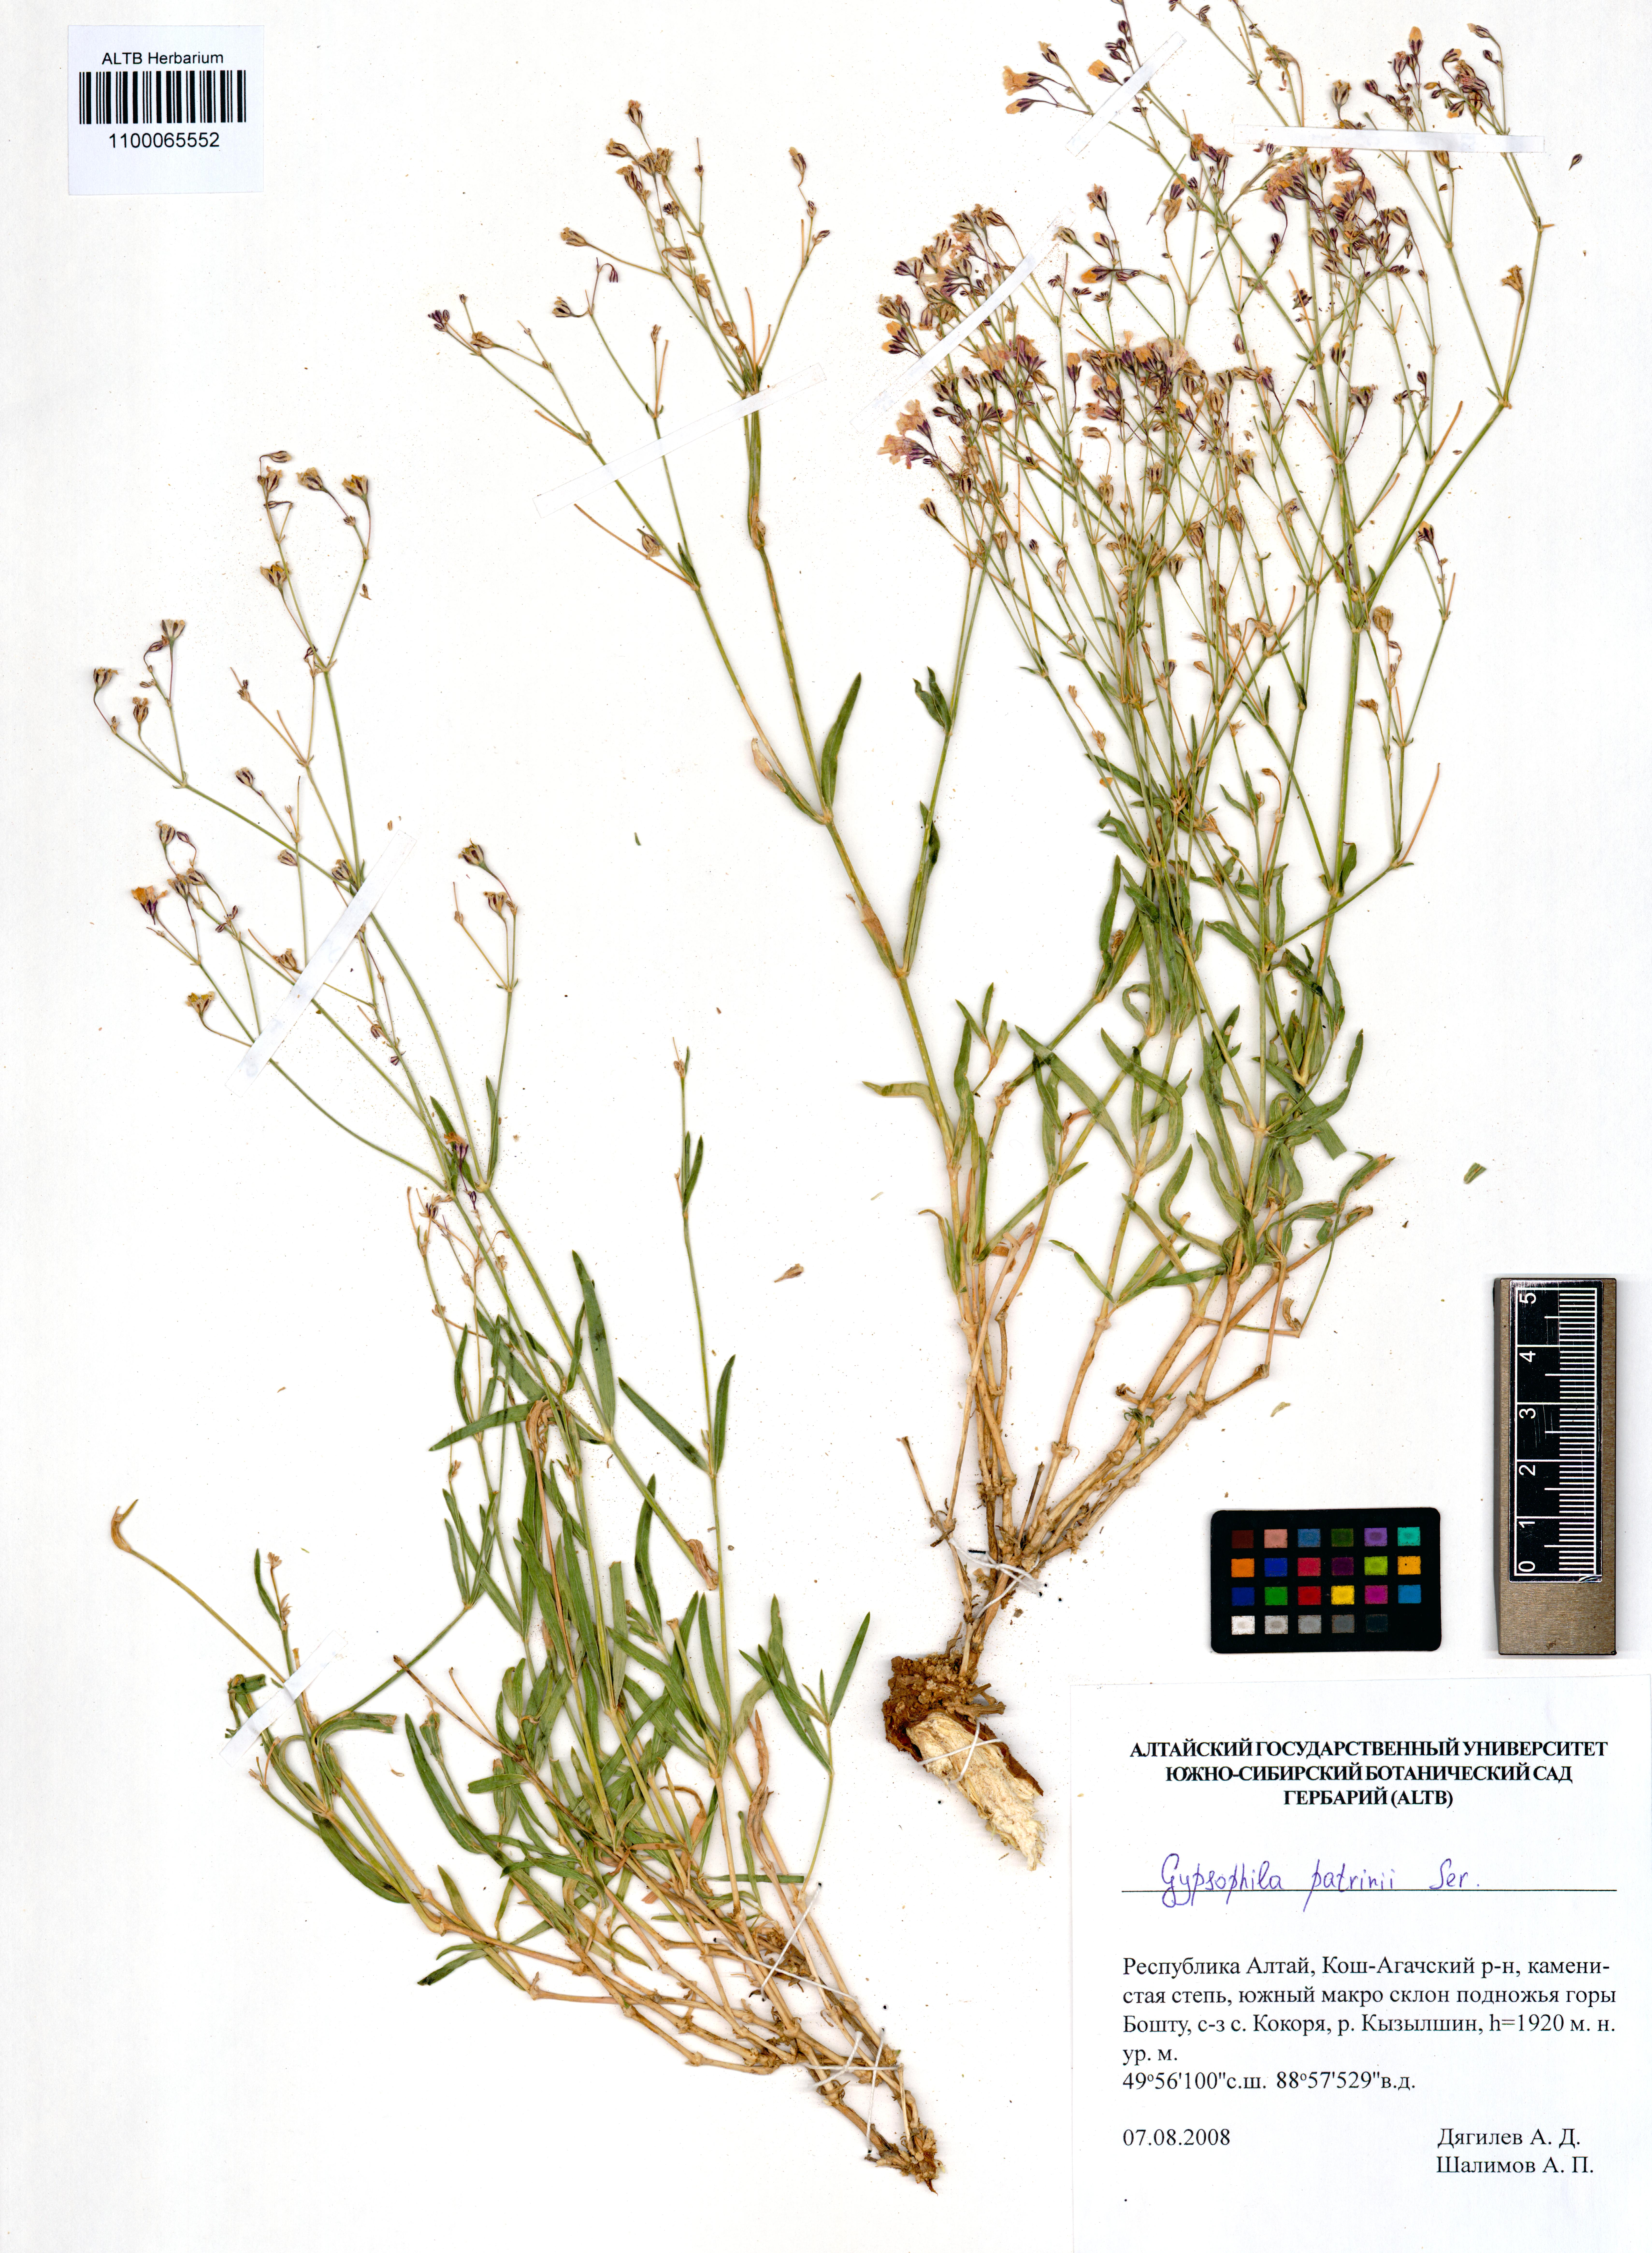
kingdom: Plantae
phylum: Tracheophyta
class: Magnoliopsida
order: Caryophyllales
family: Caryophyllaceae
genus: Gypsophila
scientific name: Gypsophila patrinii
